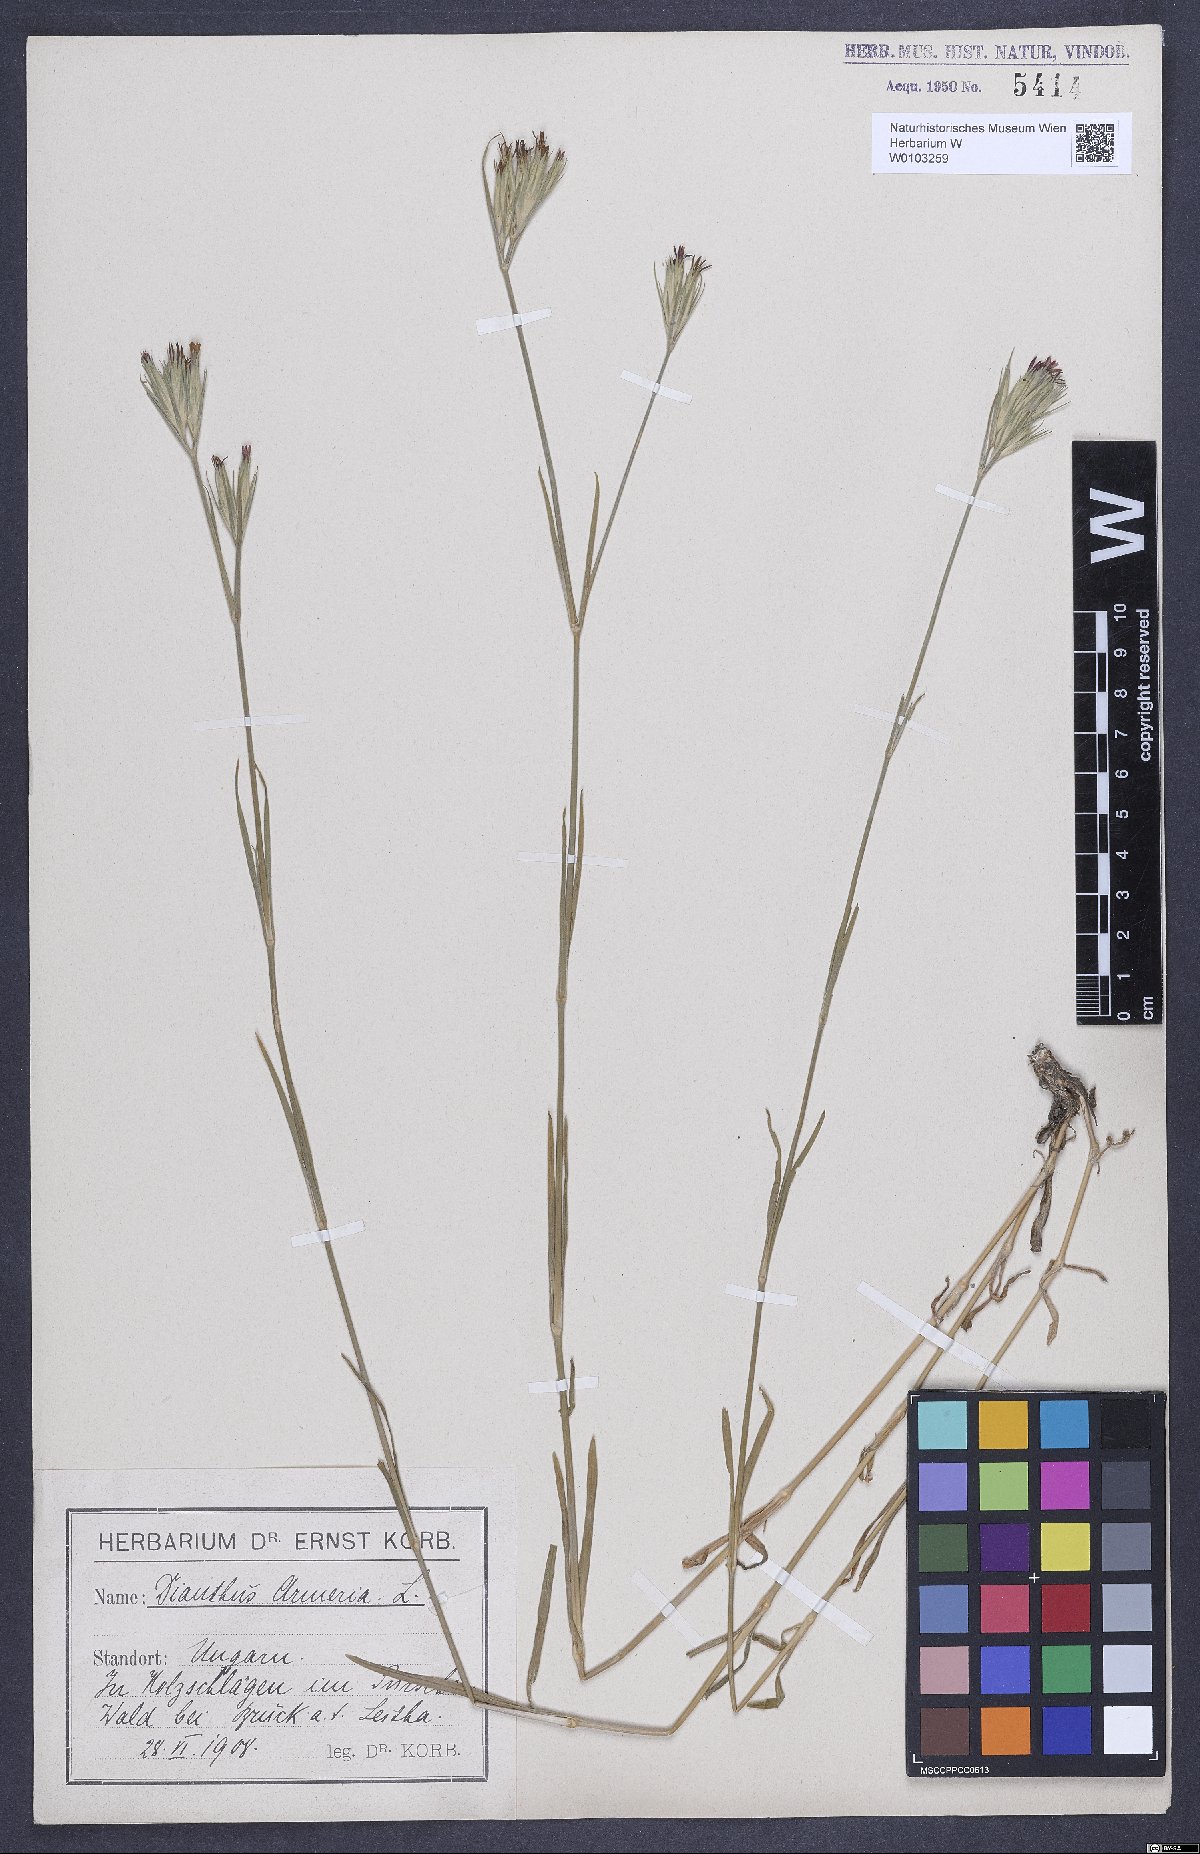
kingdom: Plantae
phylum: Tracheophyta
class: Magnoliopsida
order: Caryophyllales
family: Caryophyllaceae
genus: Dianthus
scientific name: Dianthus armeria
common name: Deptford pink
